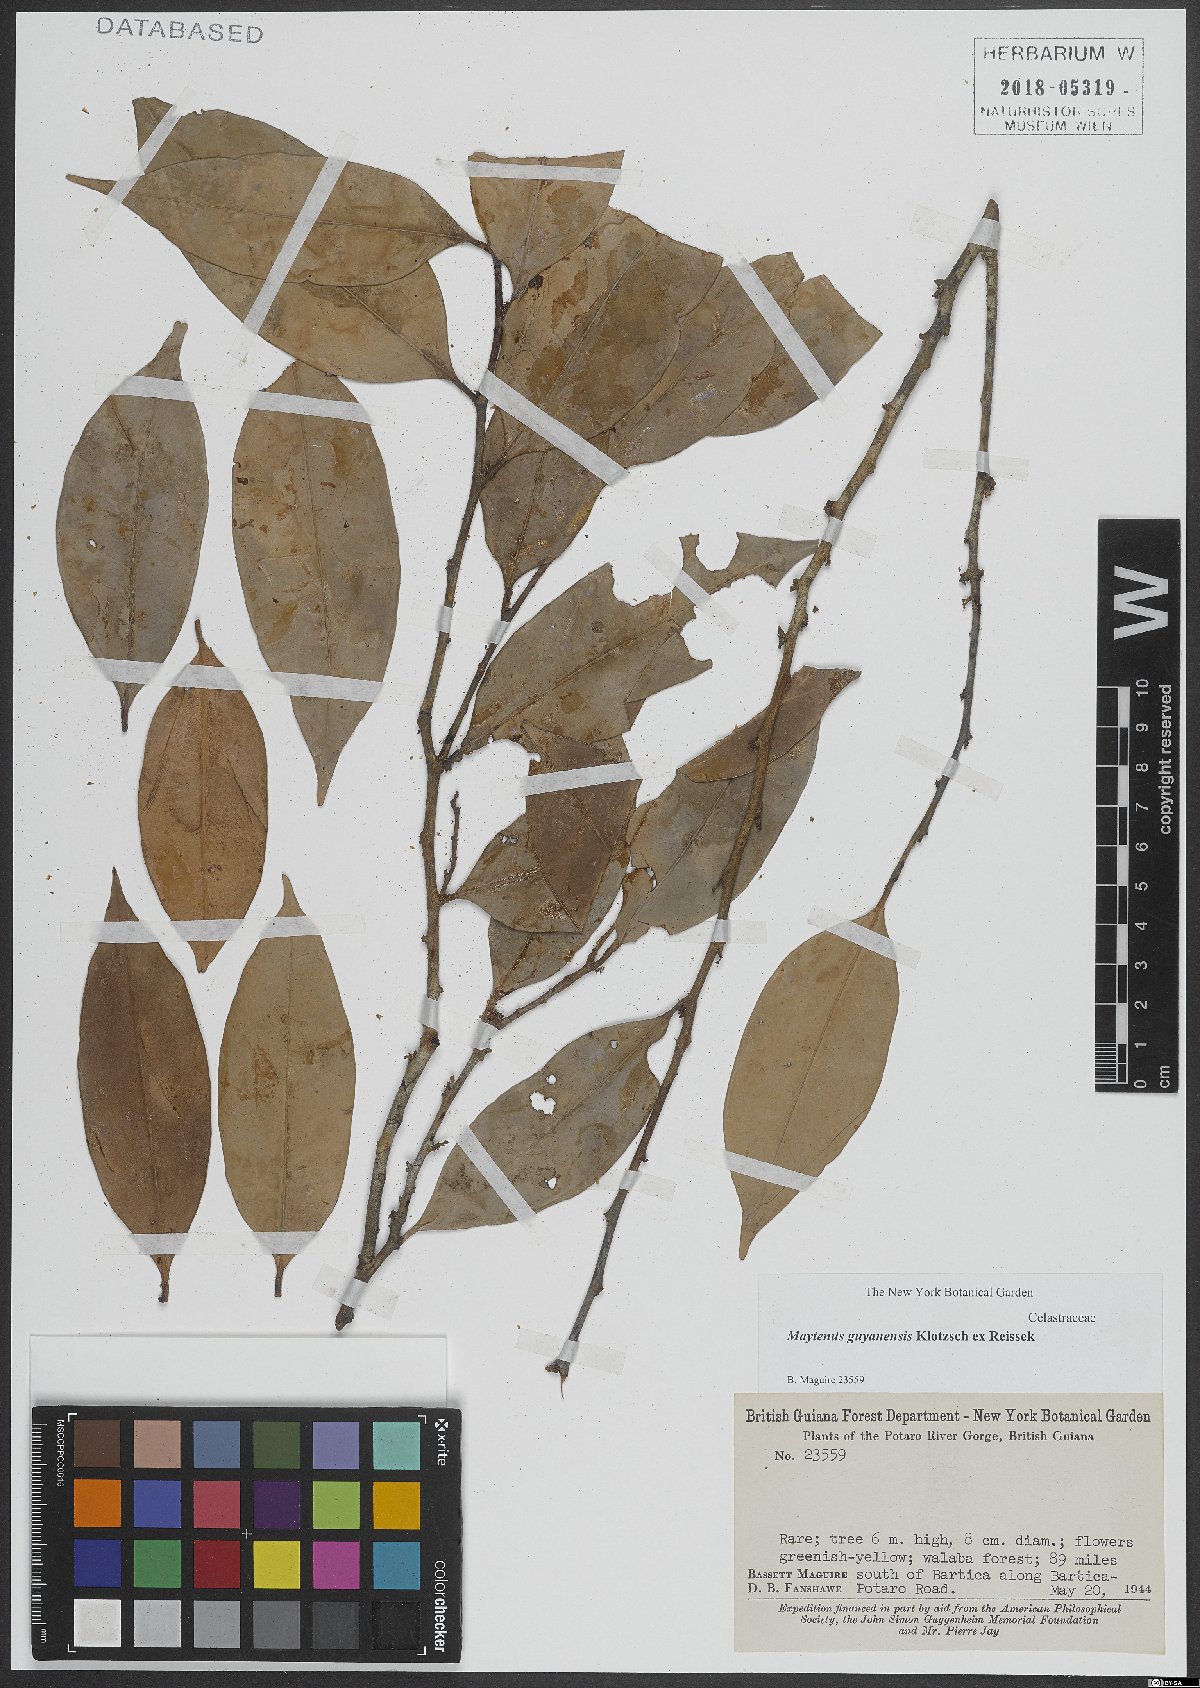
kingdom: Plantae
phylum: Tracheophyta
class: Magnoliopsida
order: Celastrales
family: Celastraceae
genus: Monteverdia
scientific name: Monteverdia guyanensis
